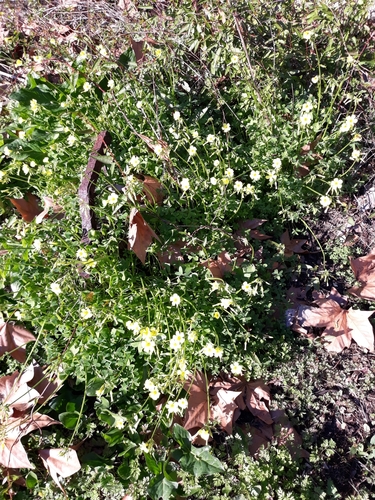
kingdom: Plantae
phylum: Tracheophyta
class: Magnoliopsida
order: Oxalidales
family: Oxalidaceae
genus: Oxalis
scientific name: Oxalis pes-caprae
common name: Bermuda-buttercup
